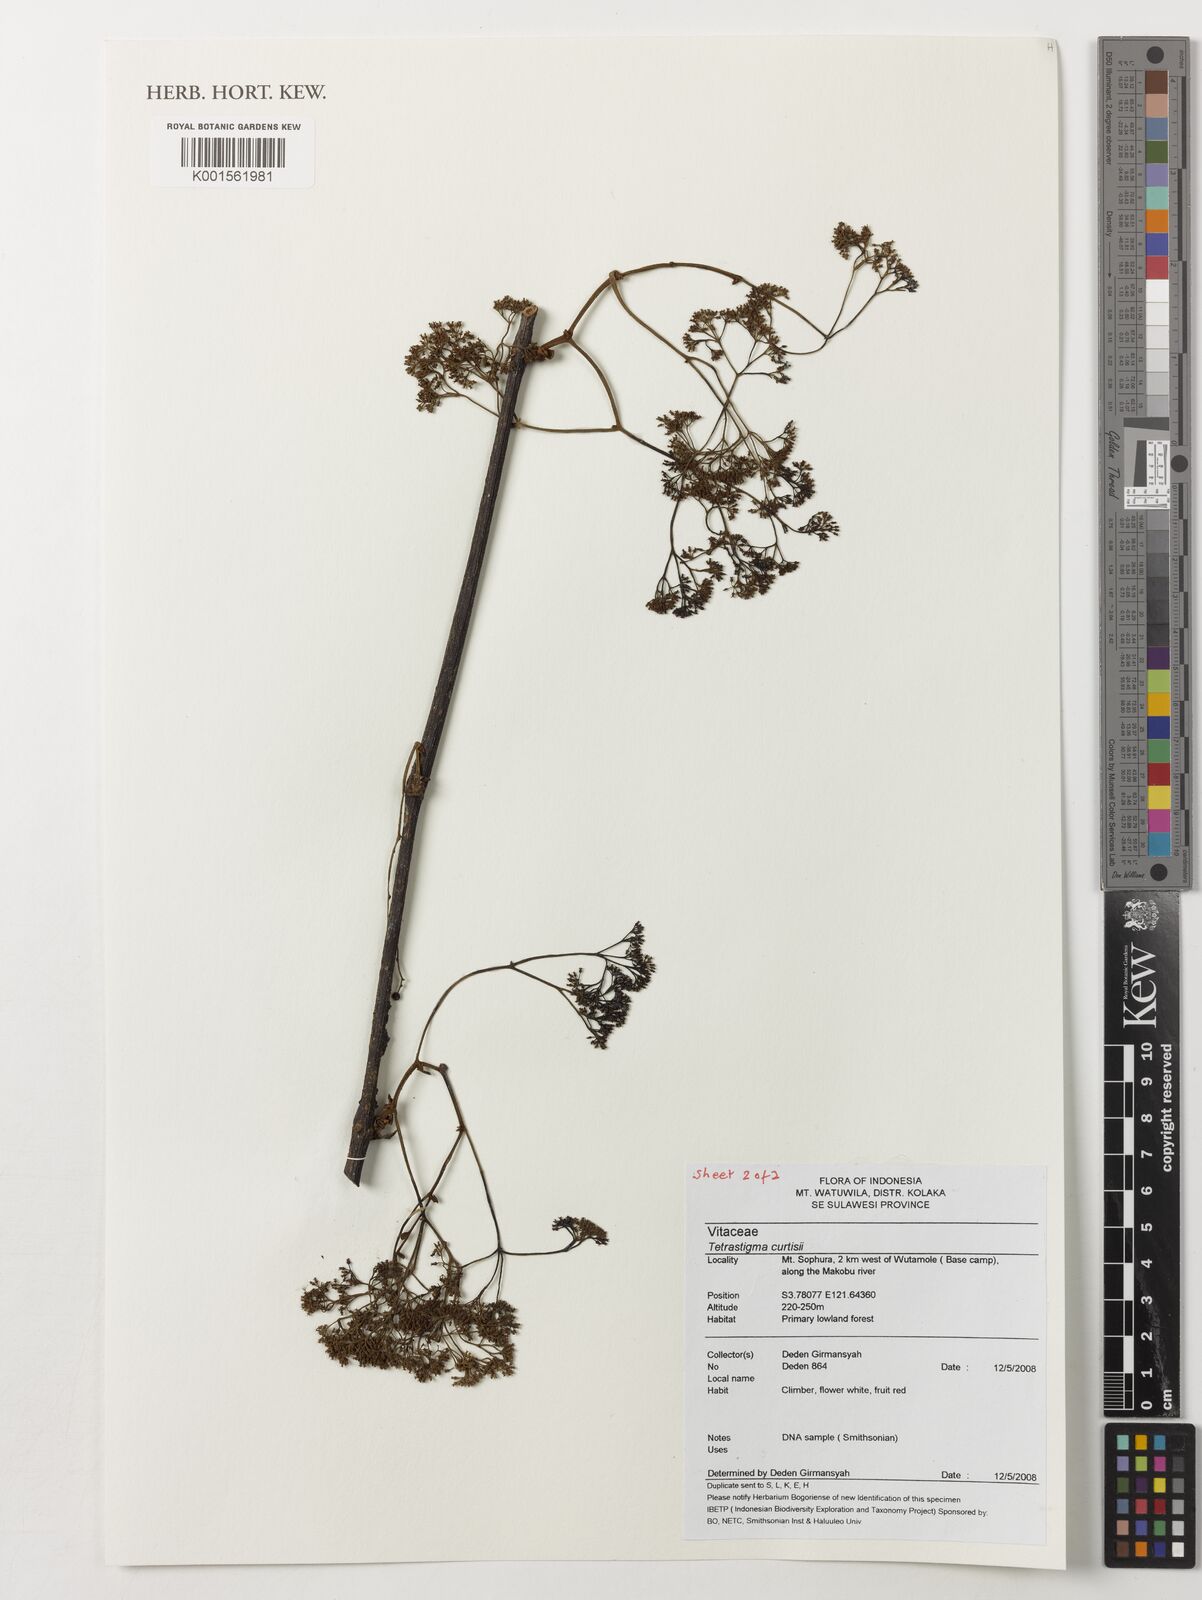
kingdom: Plantae
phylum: Tracheophyta
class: Magnoliopsida
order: Vitales
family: Vitaceae
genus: Tetrastigma
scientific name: Tetrastigma curtisii
